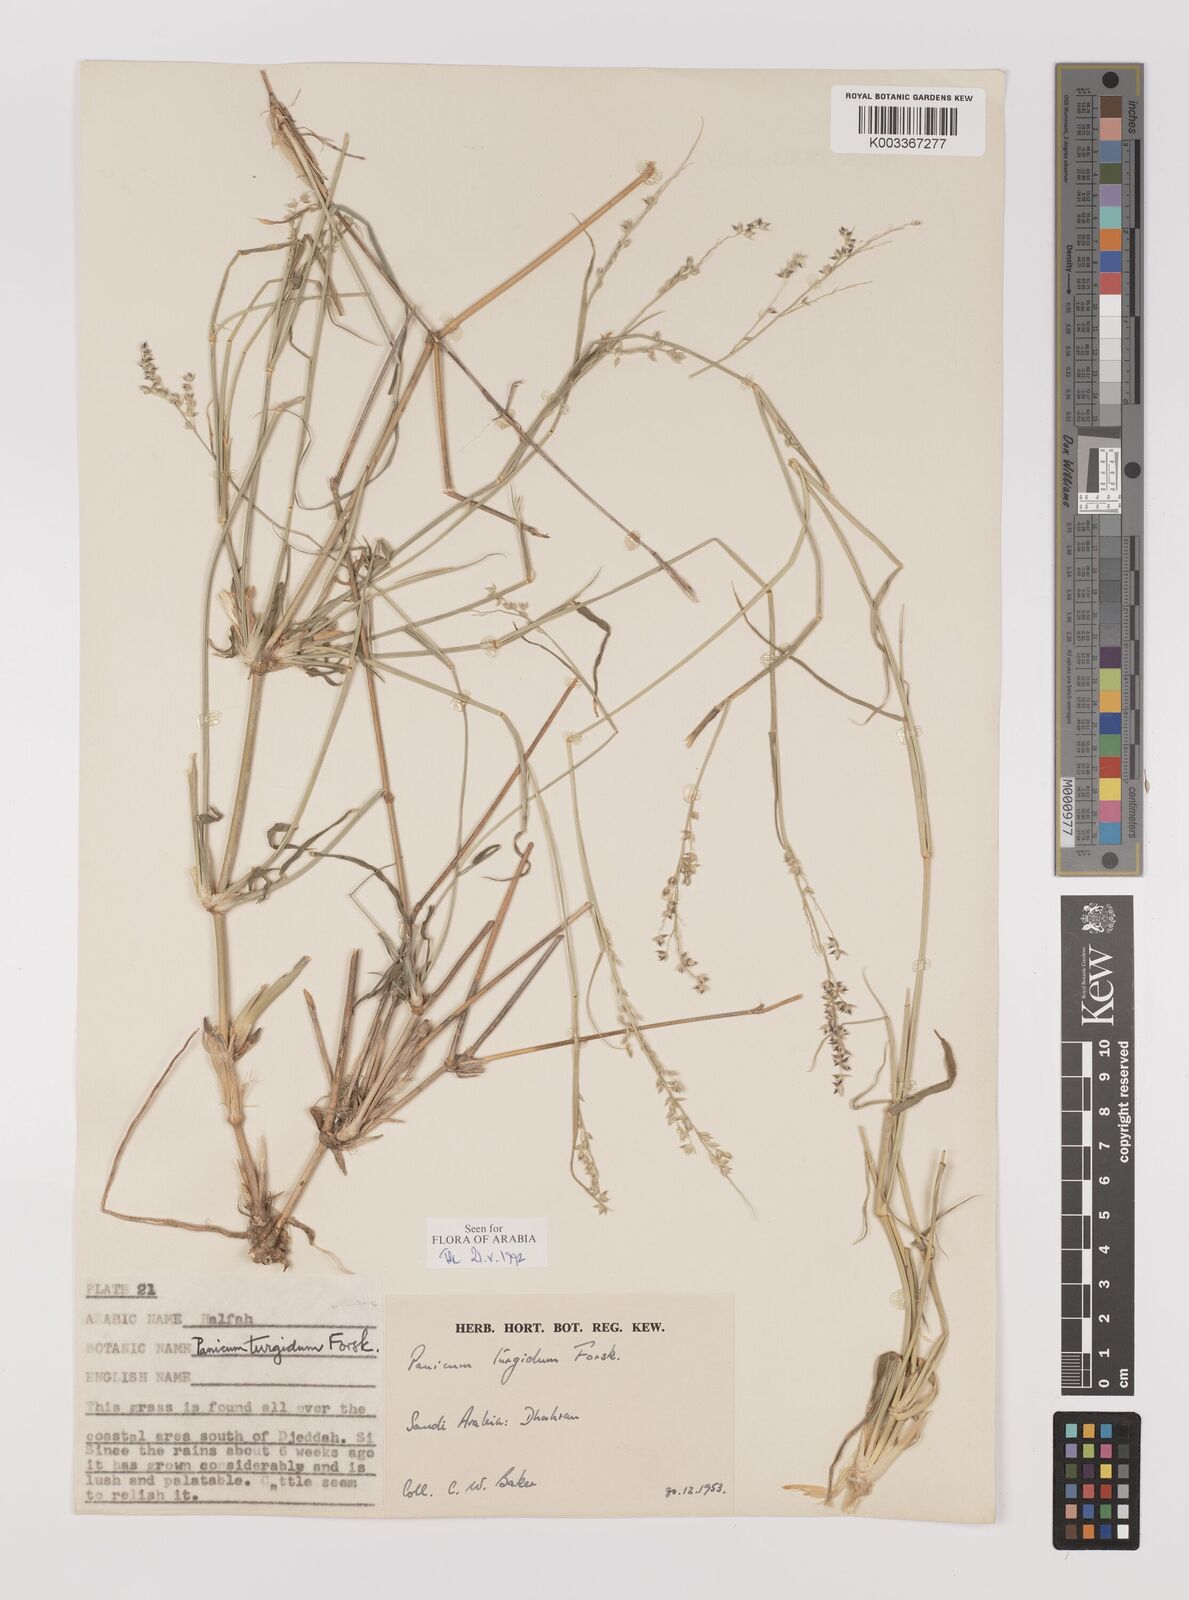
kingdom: Plantae
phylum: Tracheophyta
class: Liliopsida
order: Poales
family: Poaceae
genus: Panicum
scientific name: Panicum turgidum
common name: Desert grass
